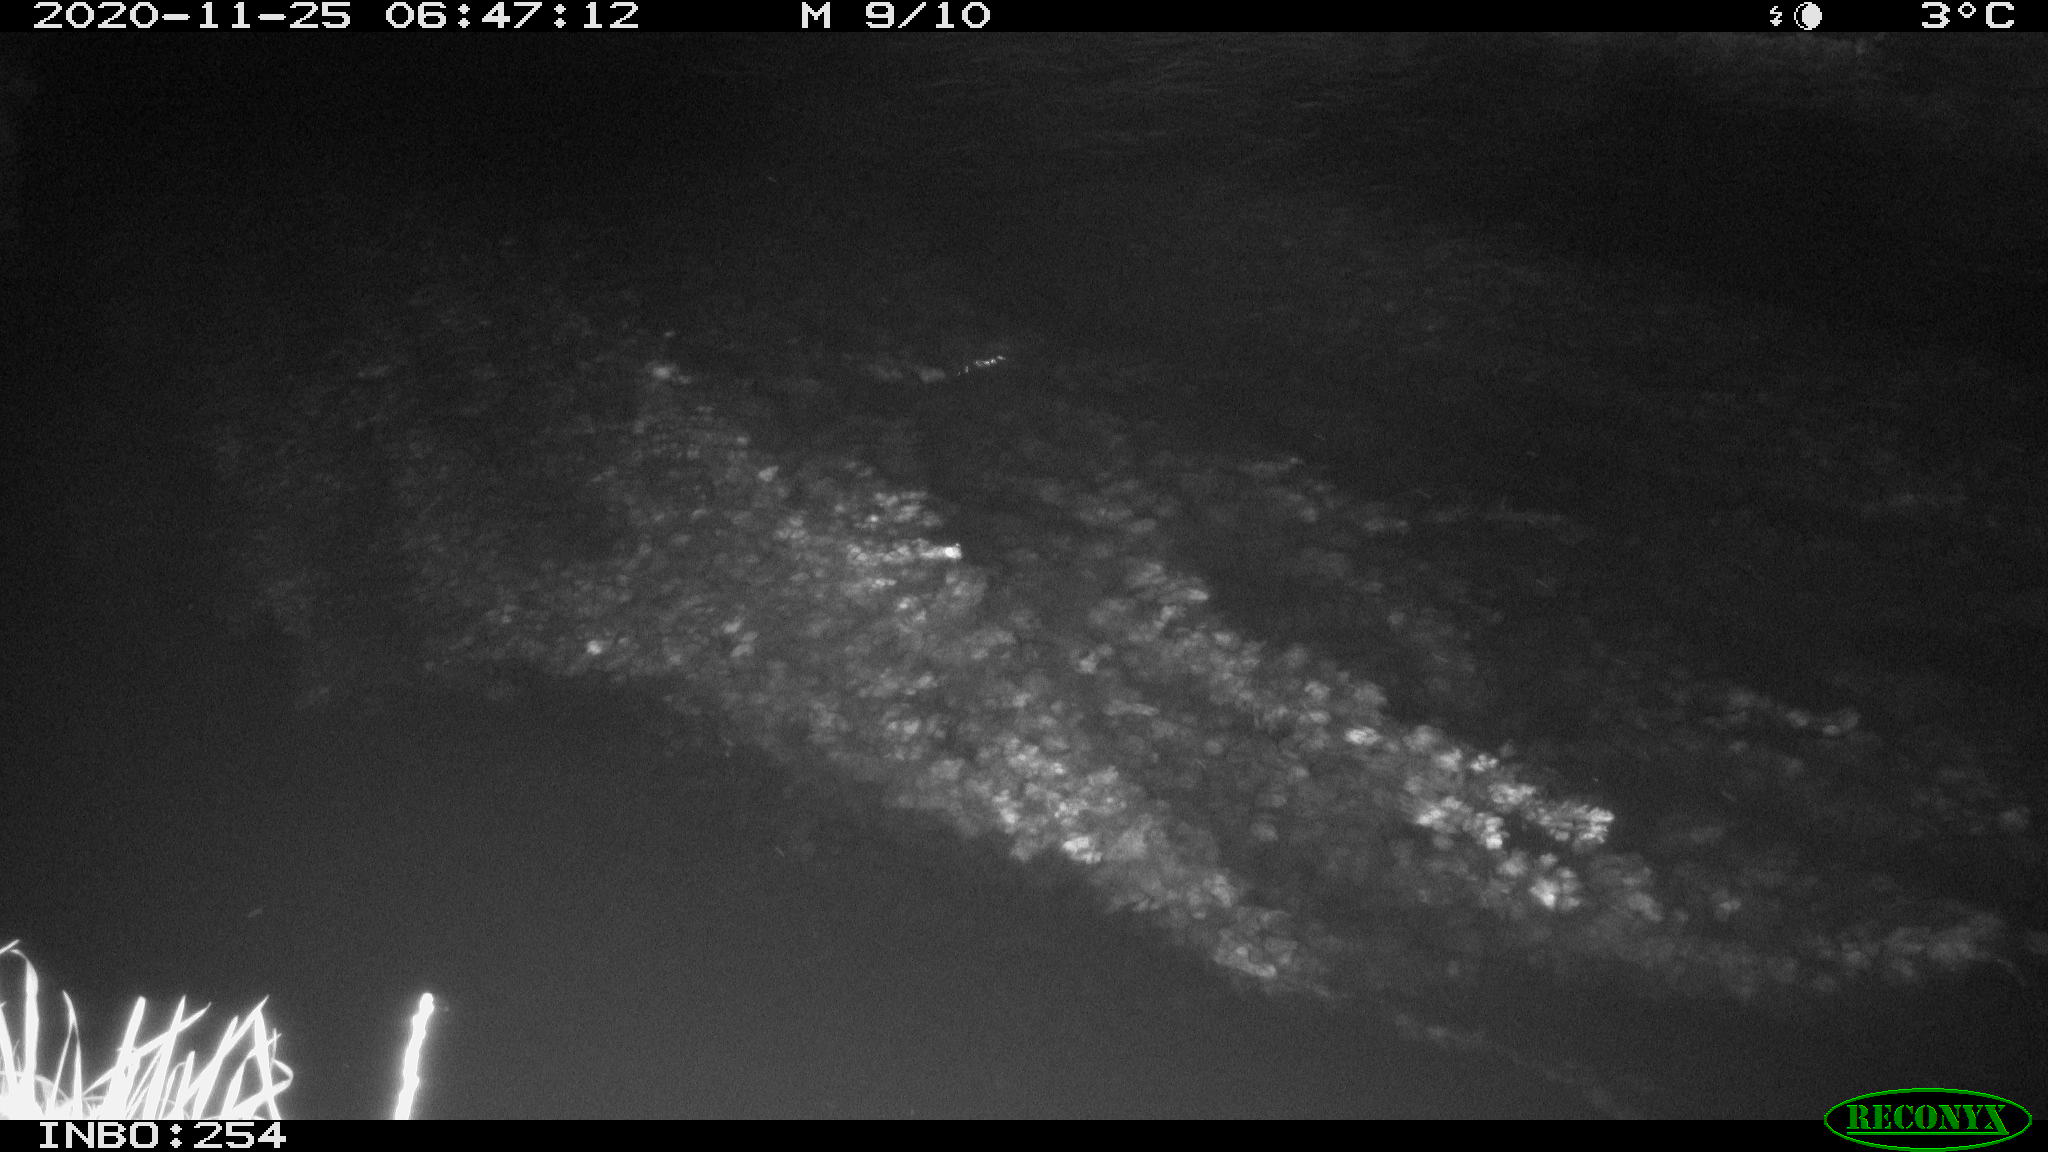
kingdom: Animalia
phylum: Chordata
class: Aves
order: Anseriformes
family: Anatidae
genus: Anas
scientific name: Anas platyrhynchos
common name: Mallard
